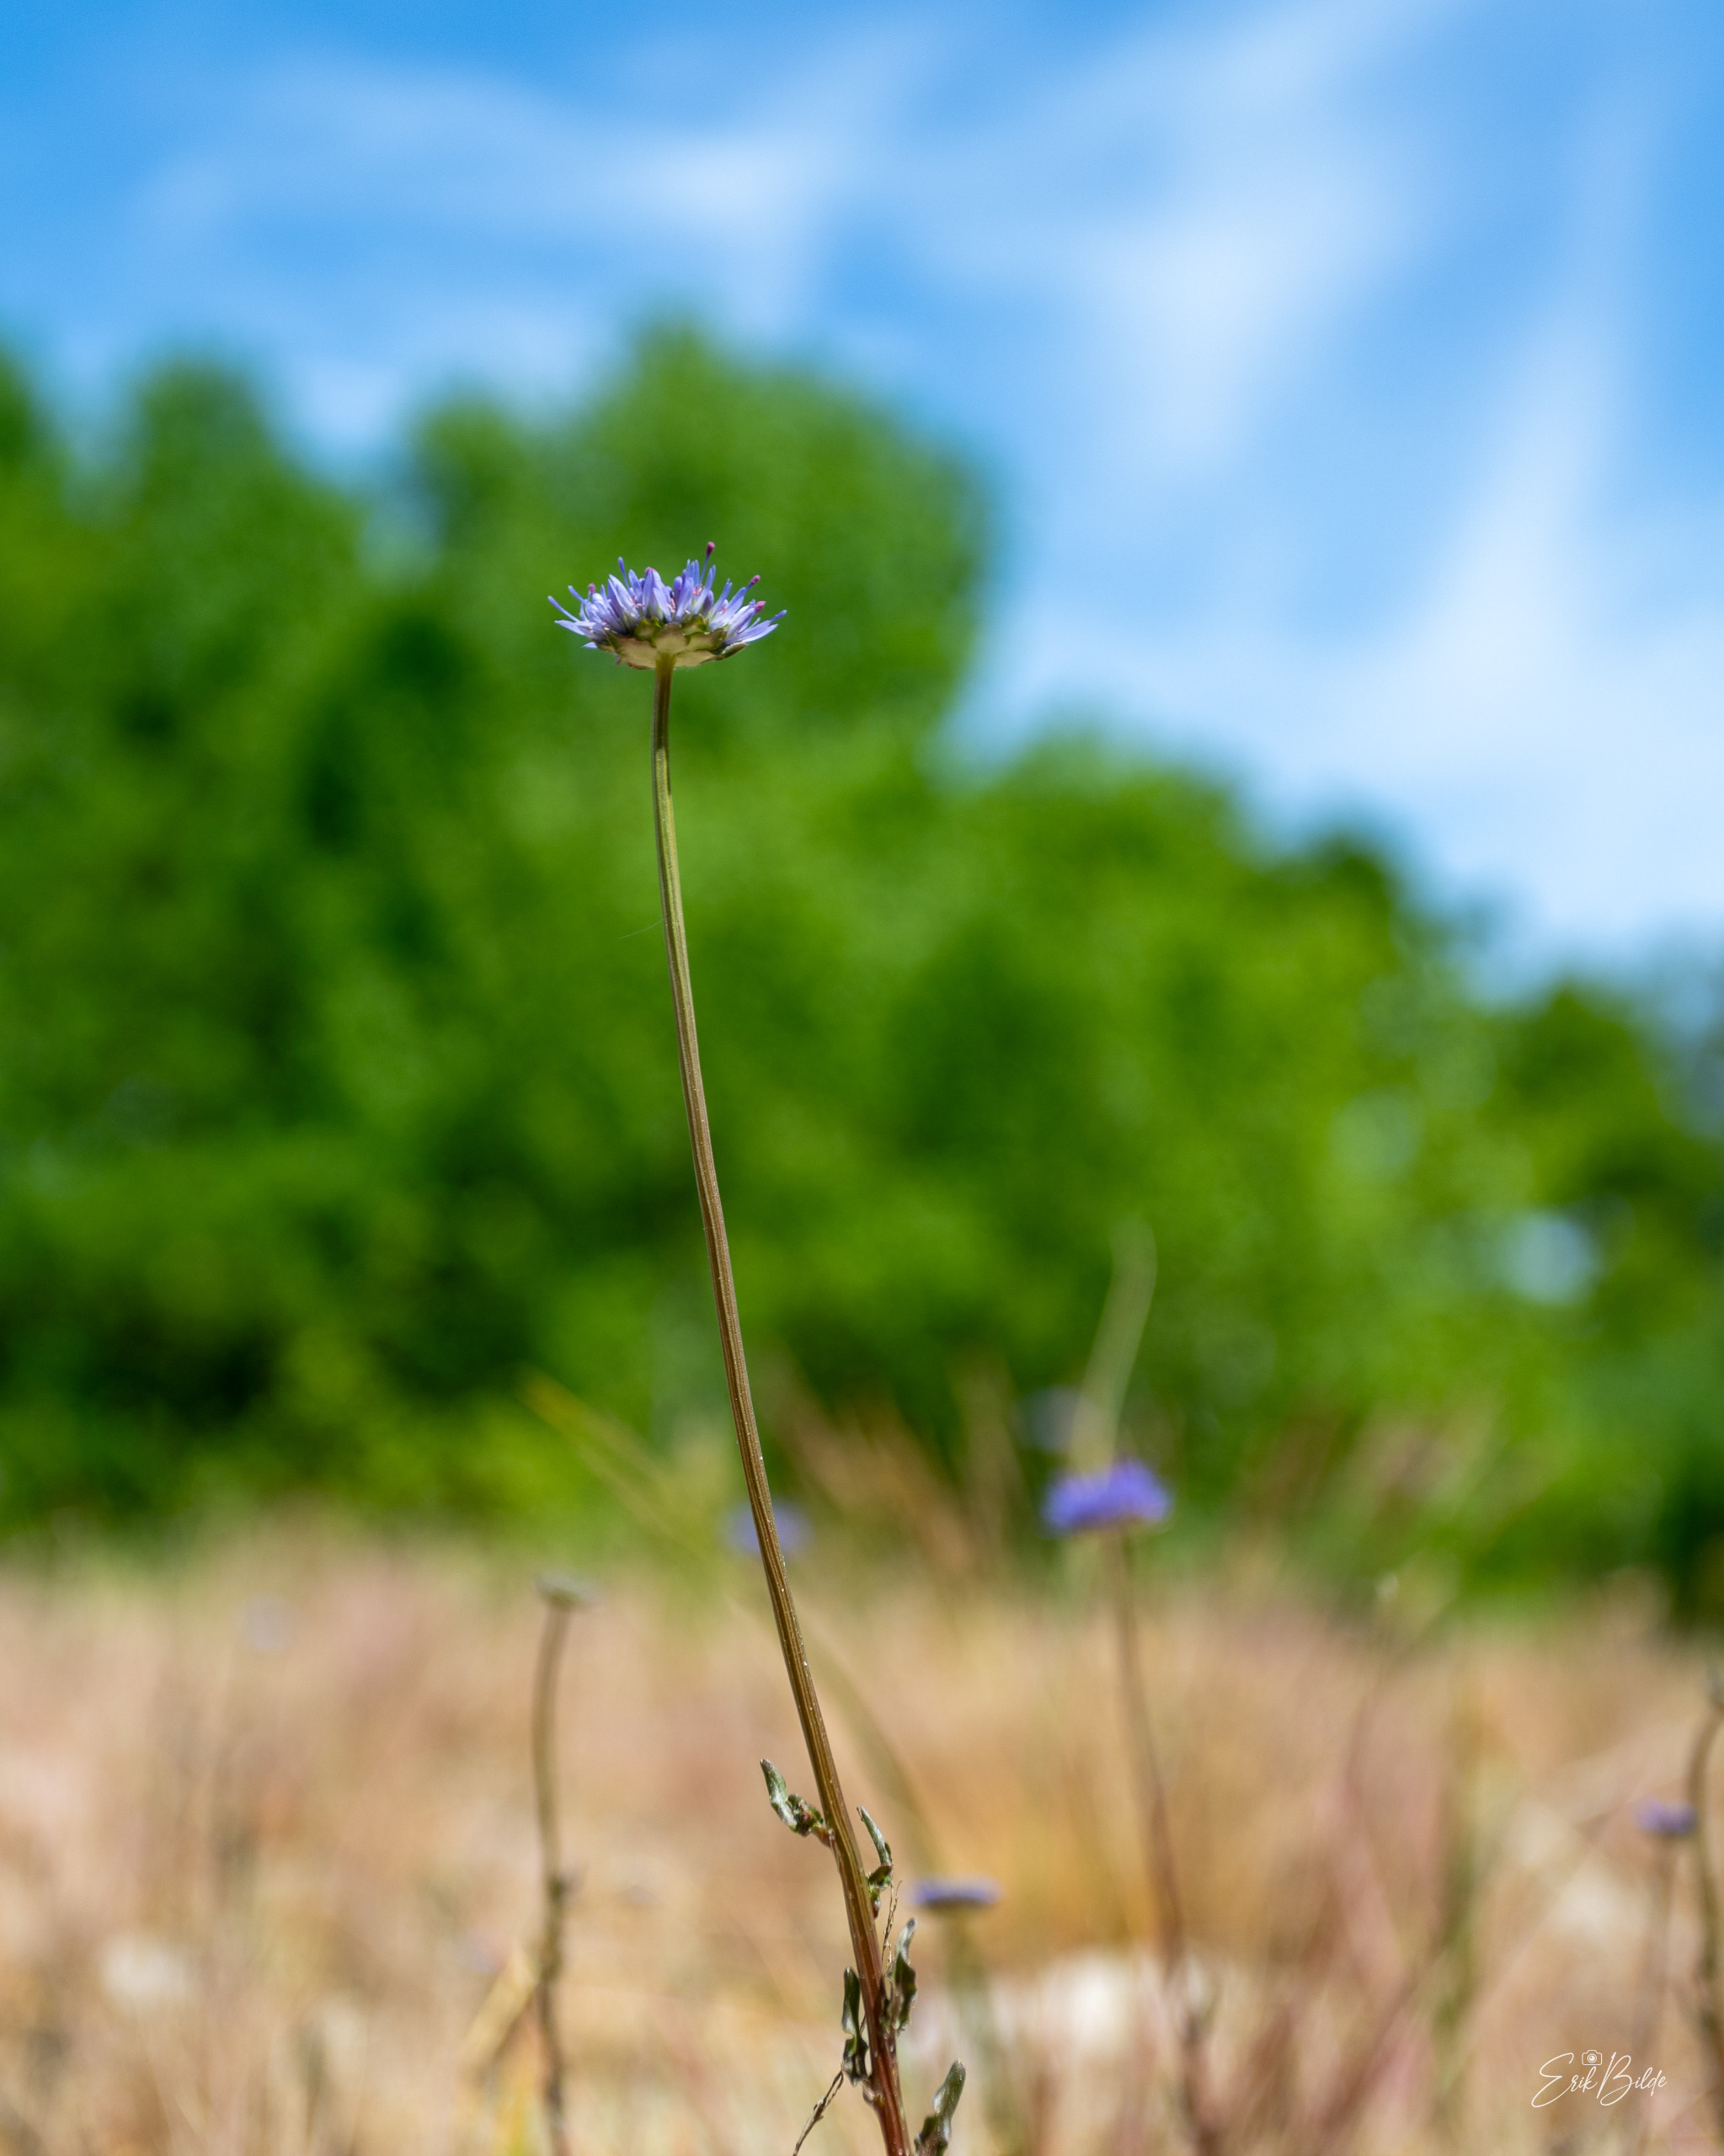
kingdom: Plantae
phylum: Tracheophyta
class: Magnoliopsida
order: Asterales
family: Campanulaceae
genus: Jasione
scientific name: Jasione montana
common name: Blåmunke
